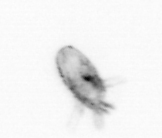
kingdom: Animalia
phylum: Arthropoda
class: Copepoda
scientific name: Copepoda
